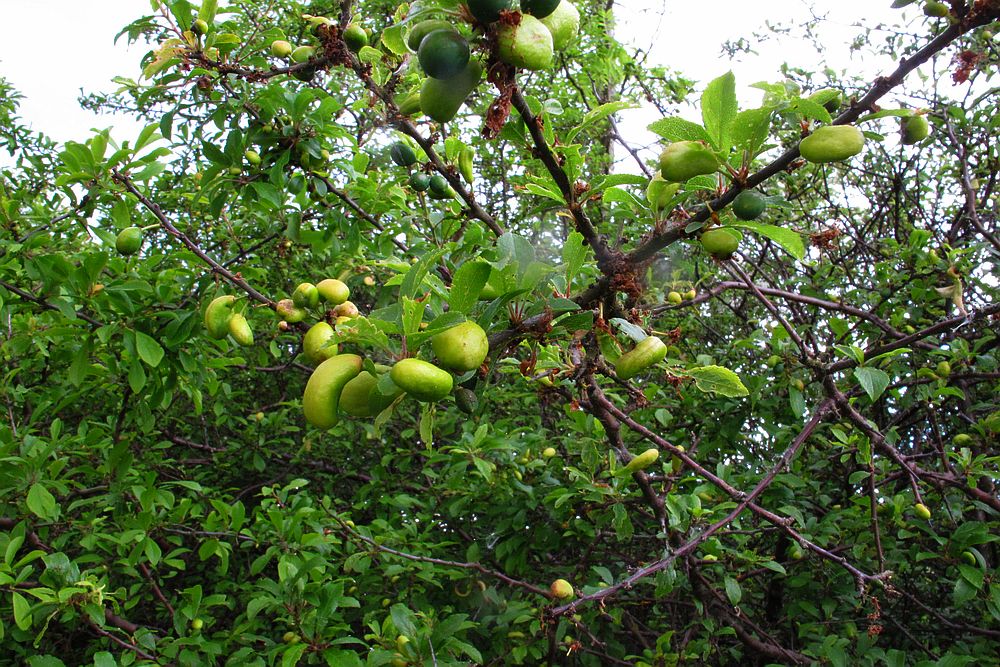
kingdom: Fungi
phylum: Ascomycota
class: Taphrinomycetes
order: Taphrinales
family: Taphrinaceae
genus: Taphrina
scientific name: Taphrina pruni
